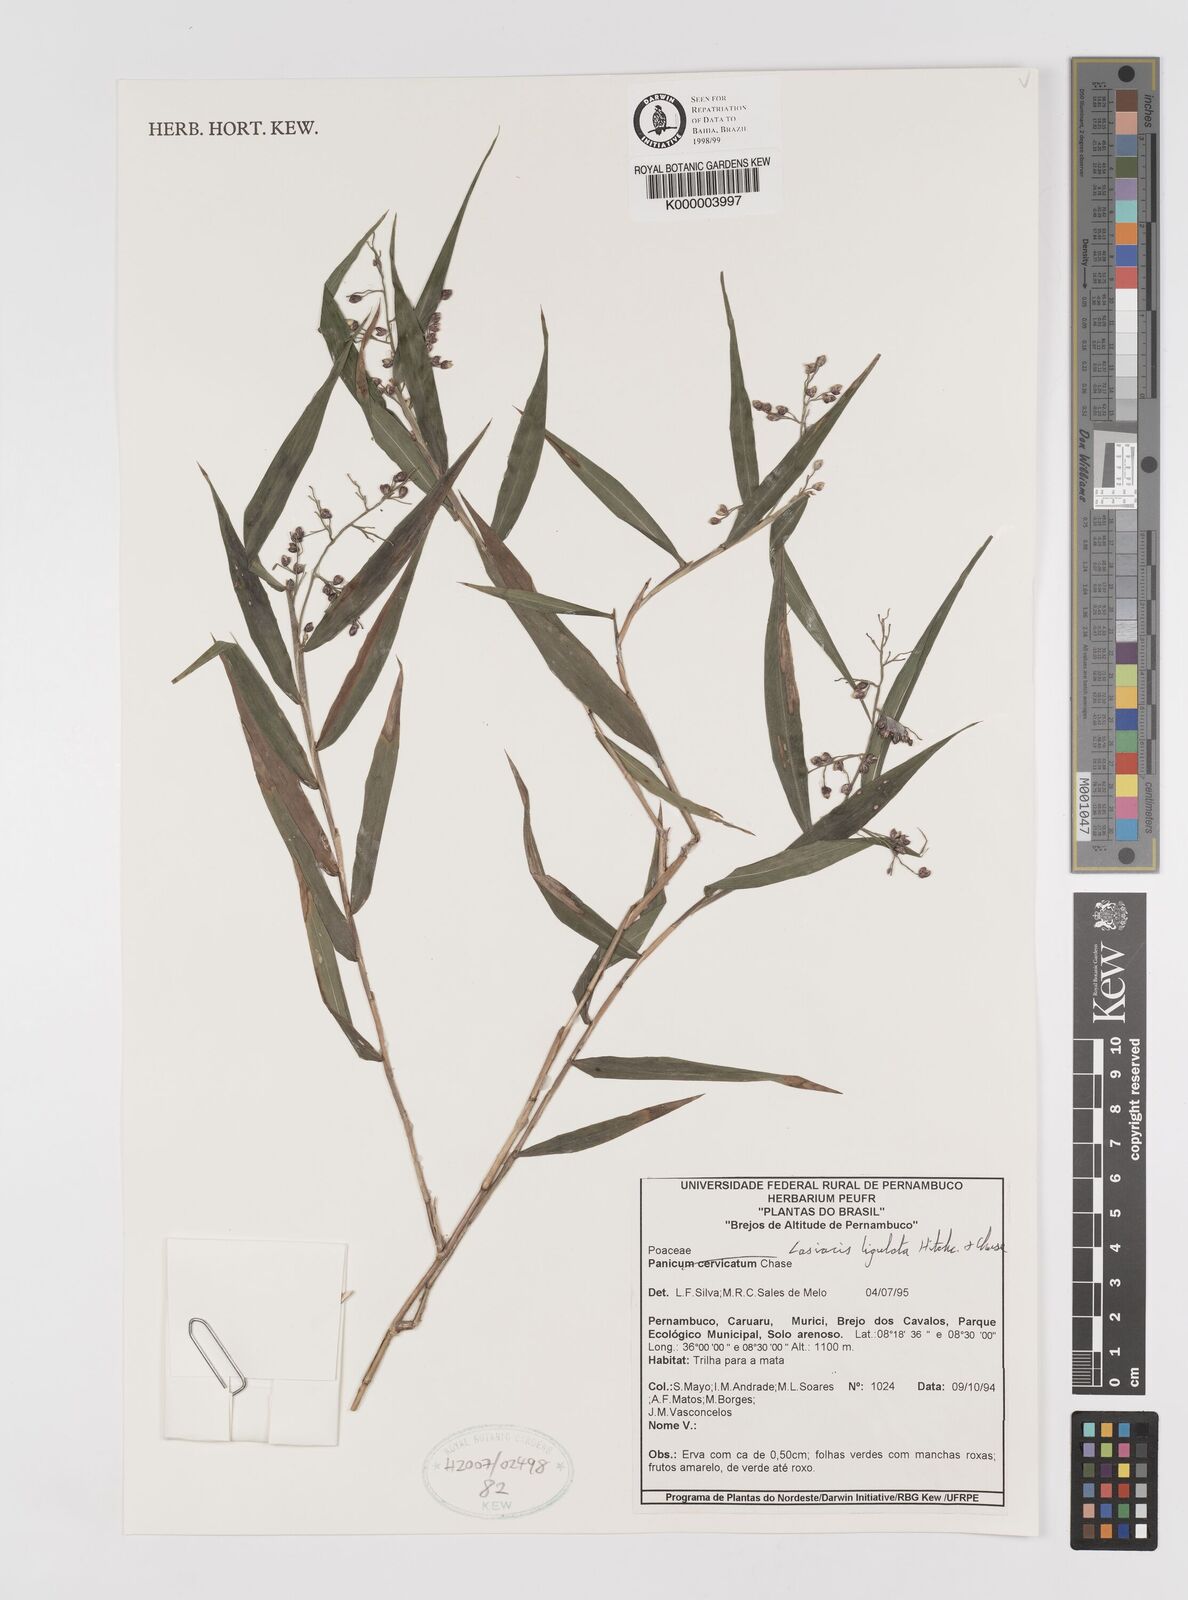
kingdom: Plantae
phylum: Tracheophyta
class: Liliopsida
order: Poales
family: Poaceae
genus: Lasiacis
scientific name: Lasiacis ligulata
